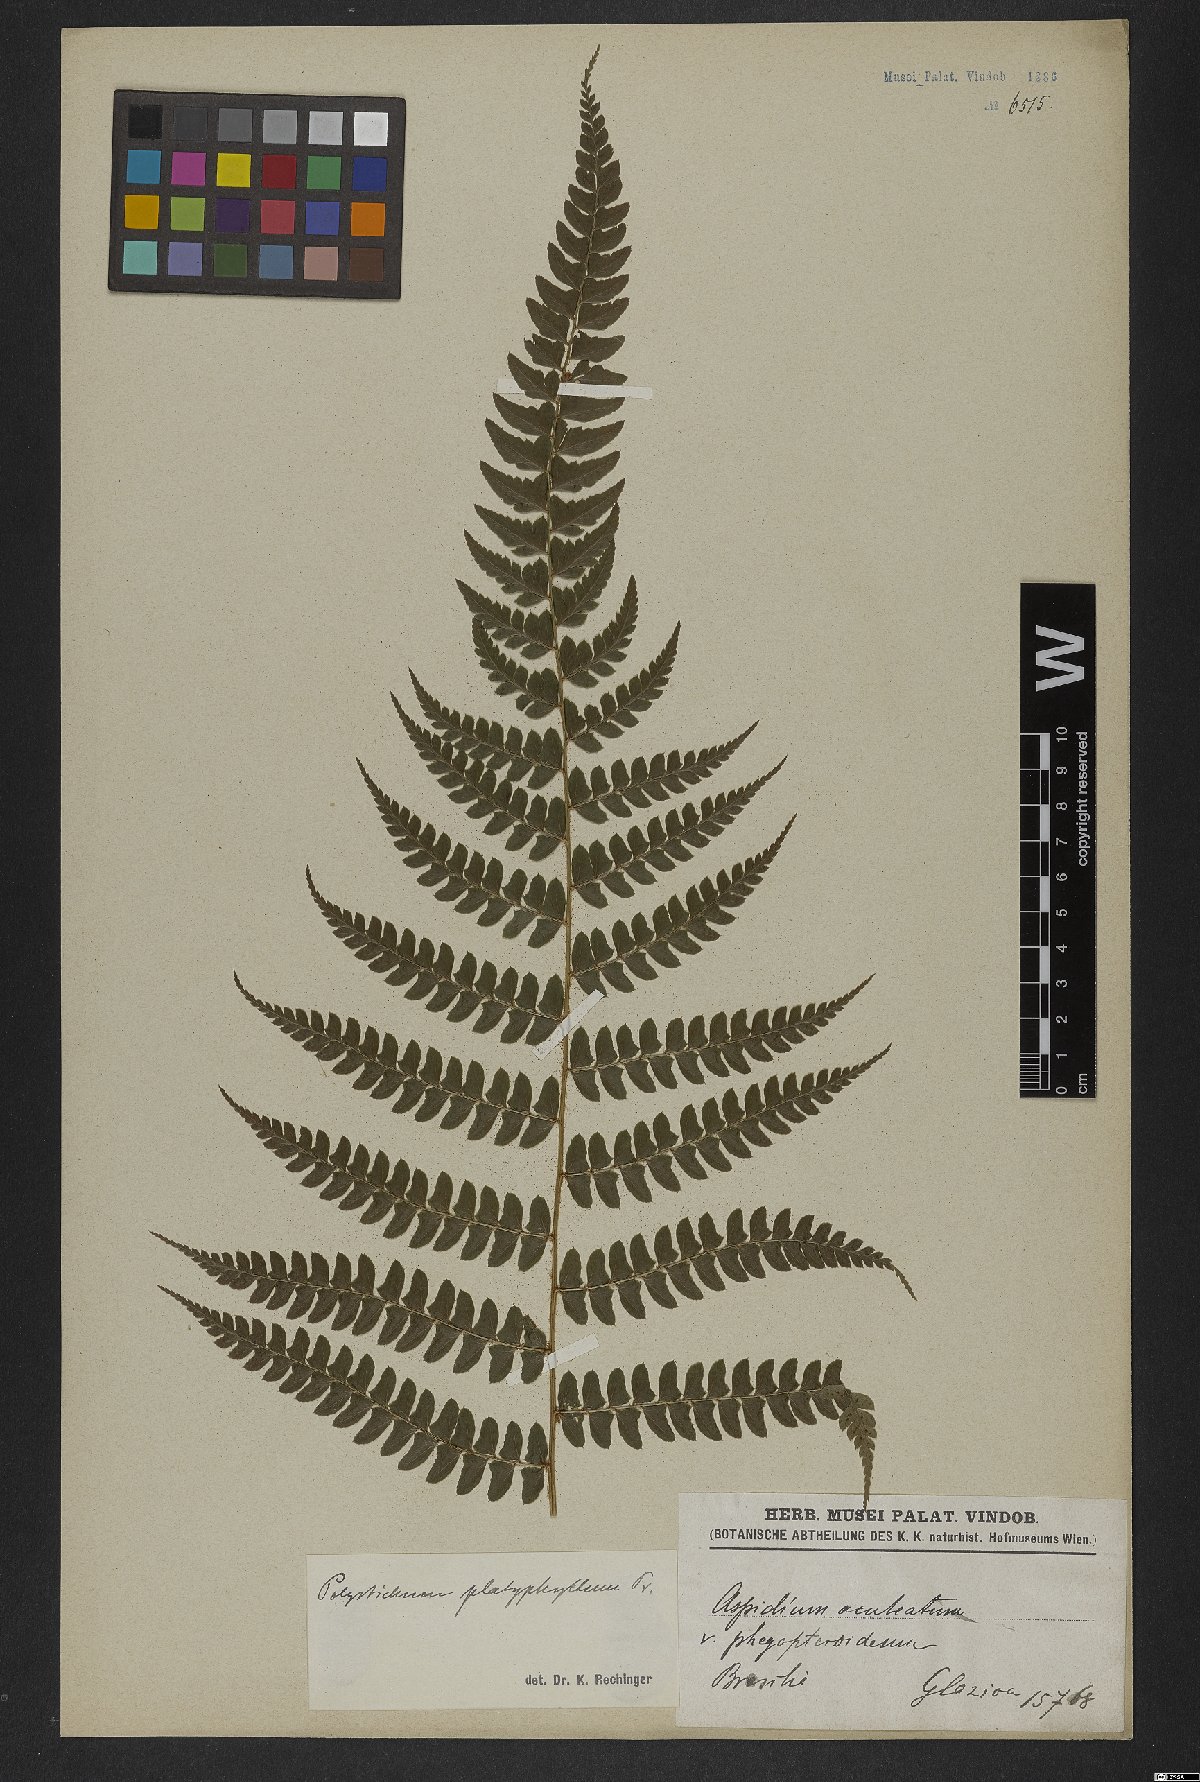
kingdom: Plantae
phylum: Tracheophyta
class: Polypodiopsida
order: Polypodiales
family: Dryopteridaceae
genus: Polystichum
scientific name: Polystichum aculeatum
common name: Hard shield-fern
